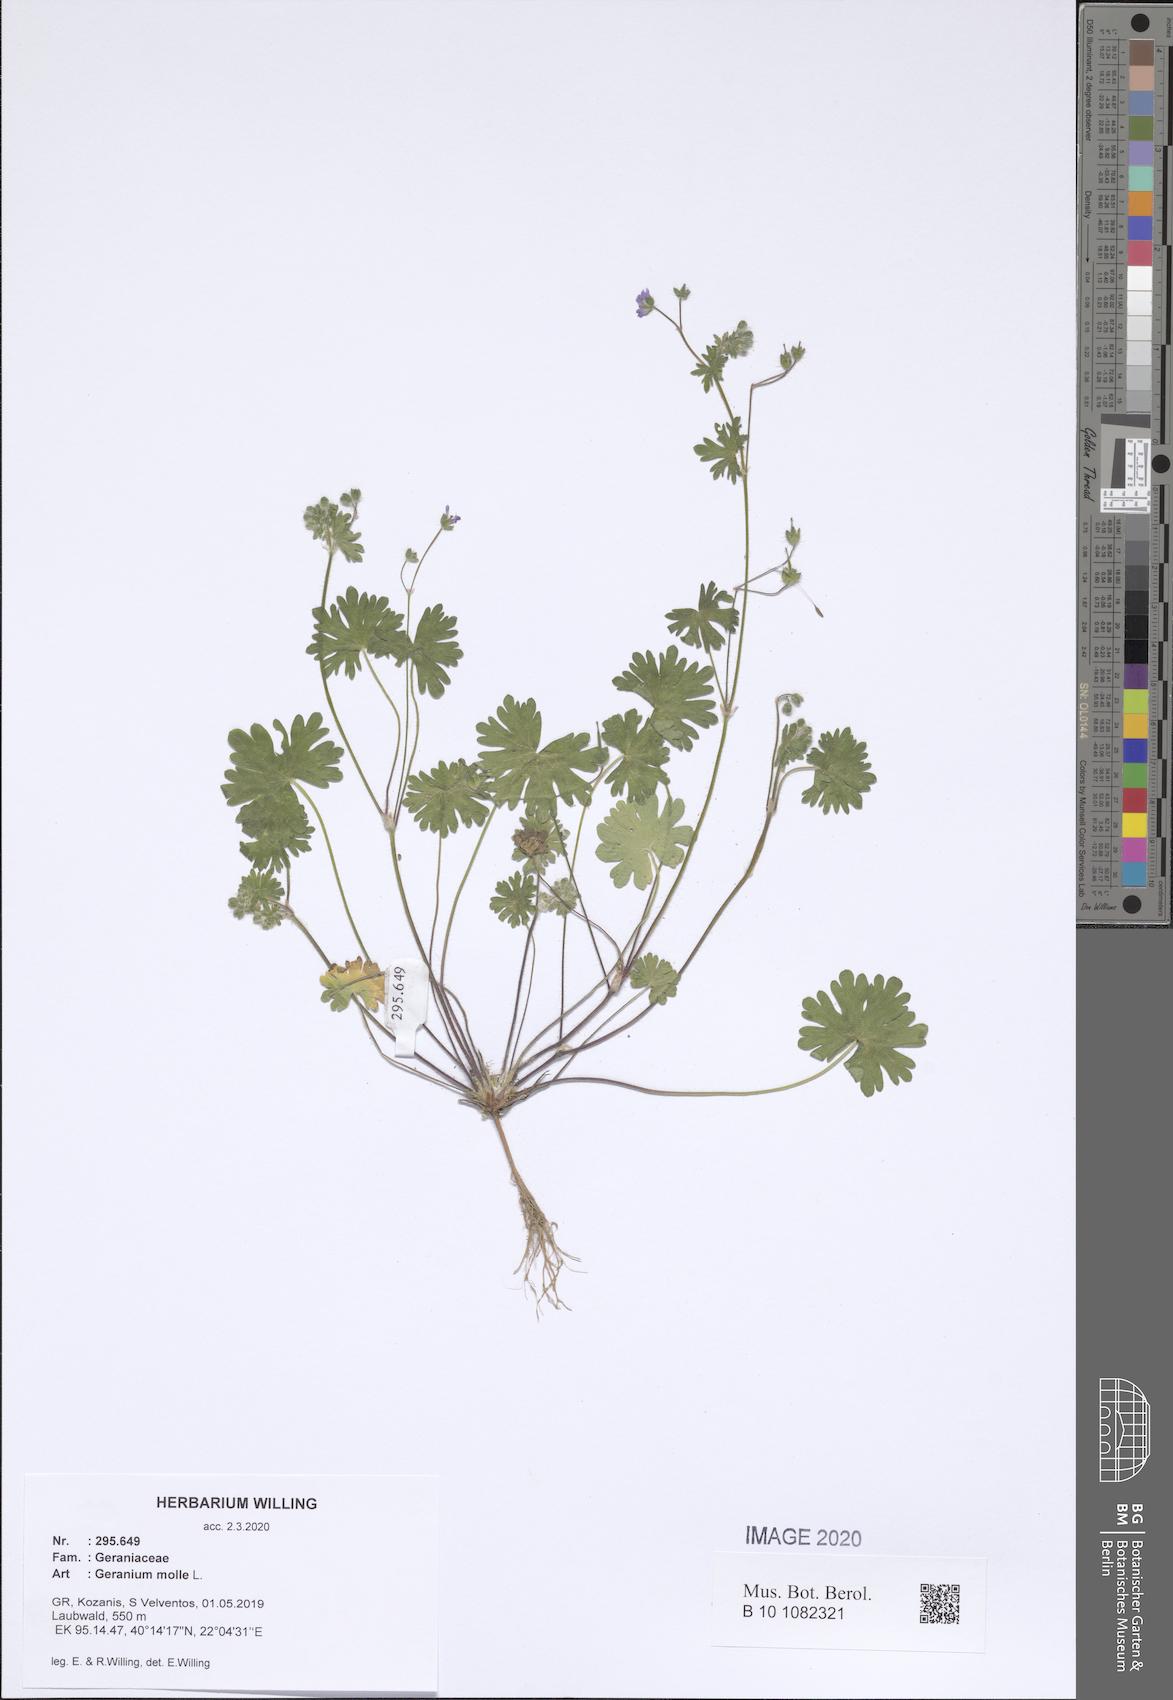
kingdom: Plantae
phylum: Tracheophyta
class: Magnoliopsida
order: Geraniales
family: Geraniaceae
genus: Geranium
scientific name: Geranium molle
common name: Dove's-foot crane's-bill
